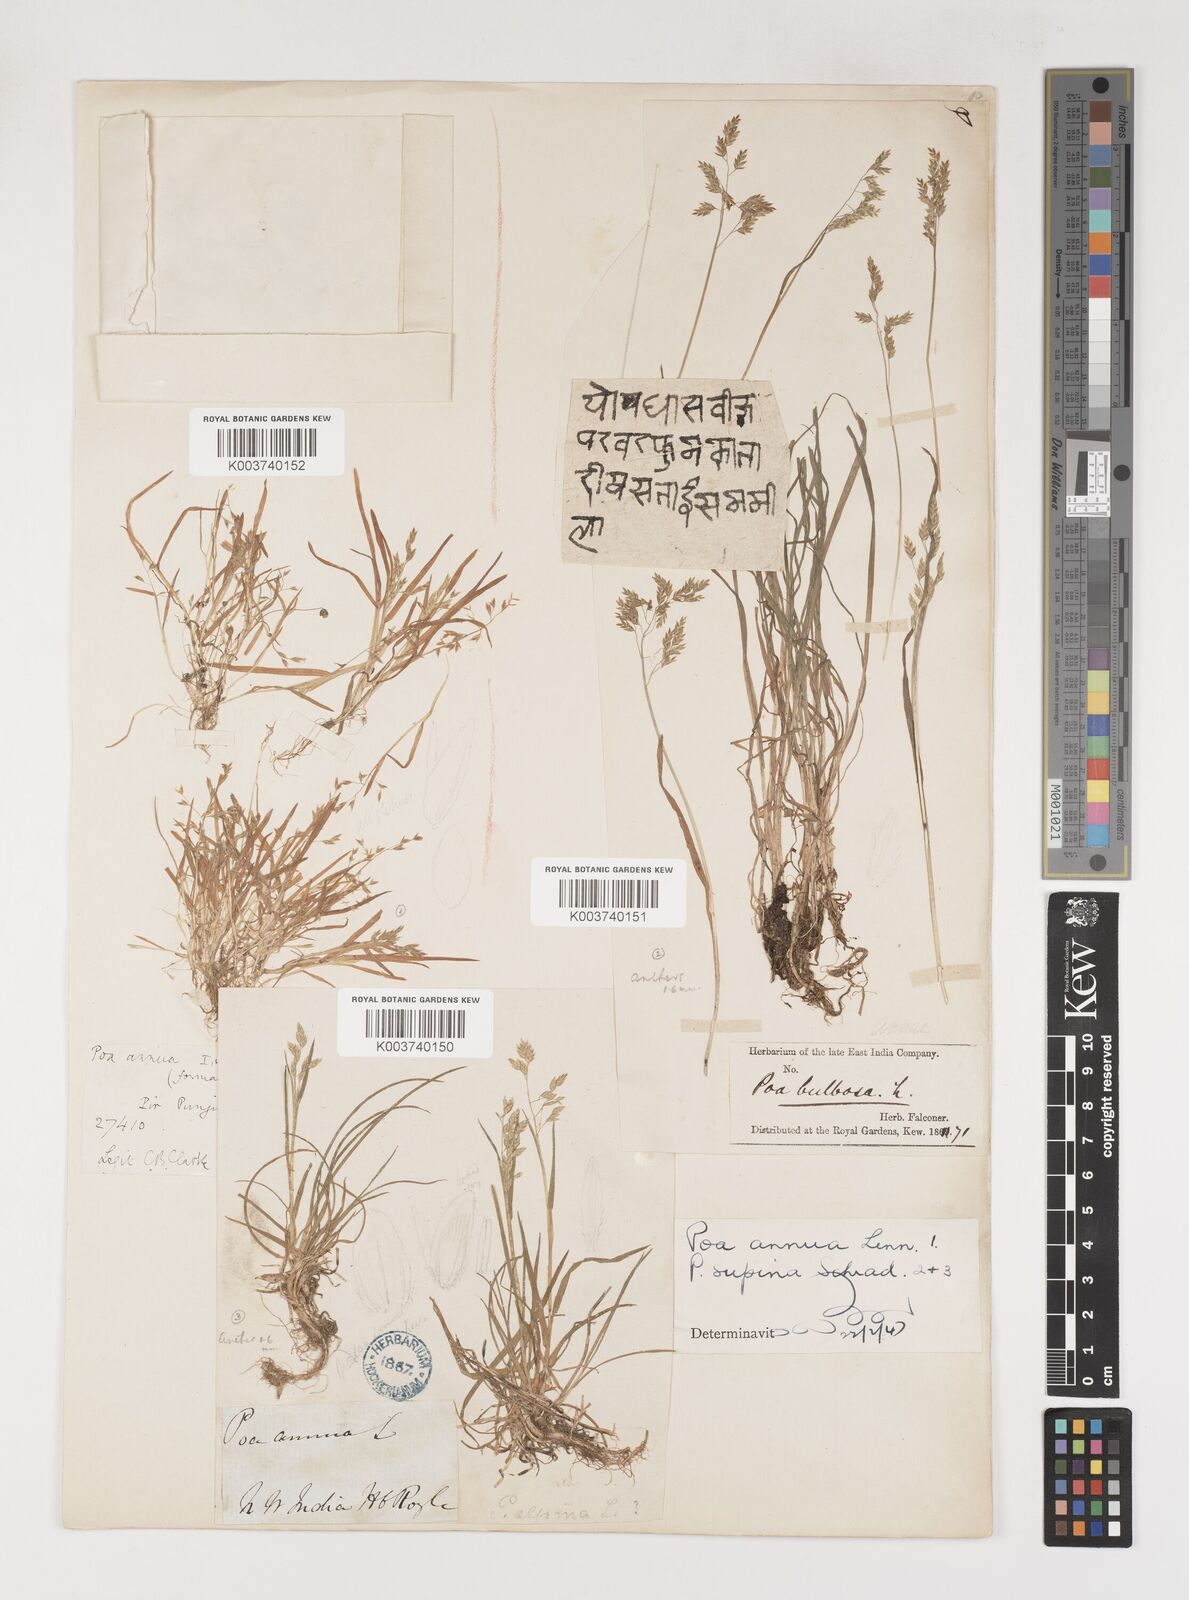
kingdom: Plantae
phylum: Tracheophyta
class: Liliopsida
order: Poales
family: Poaceae
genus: Poa
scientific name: Poa supina
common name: Supina bluegrass
